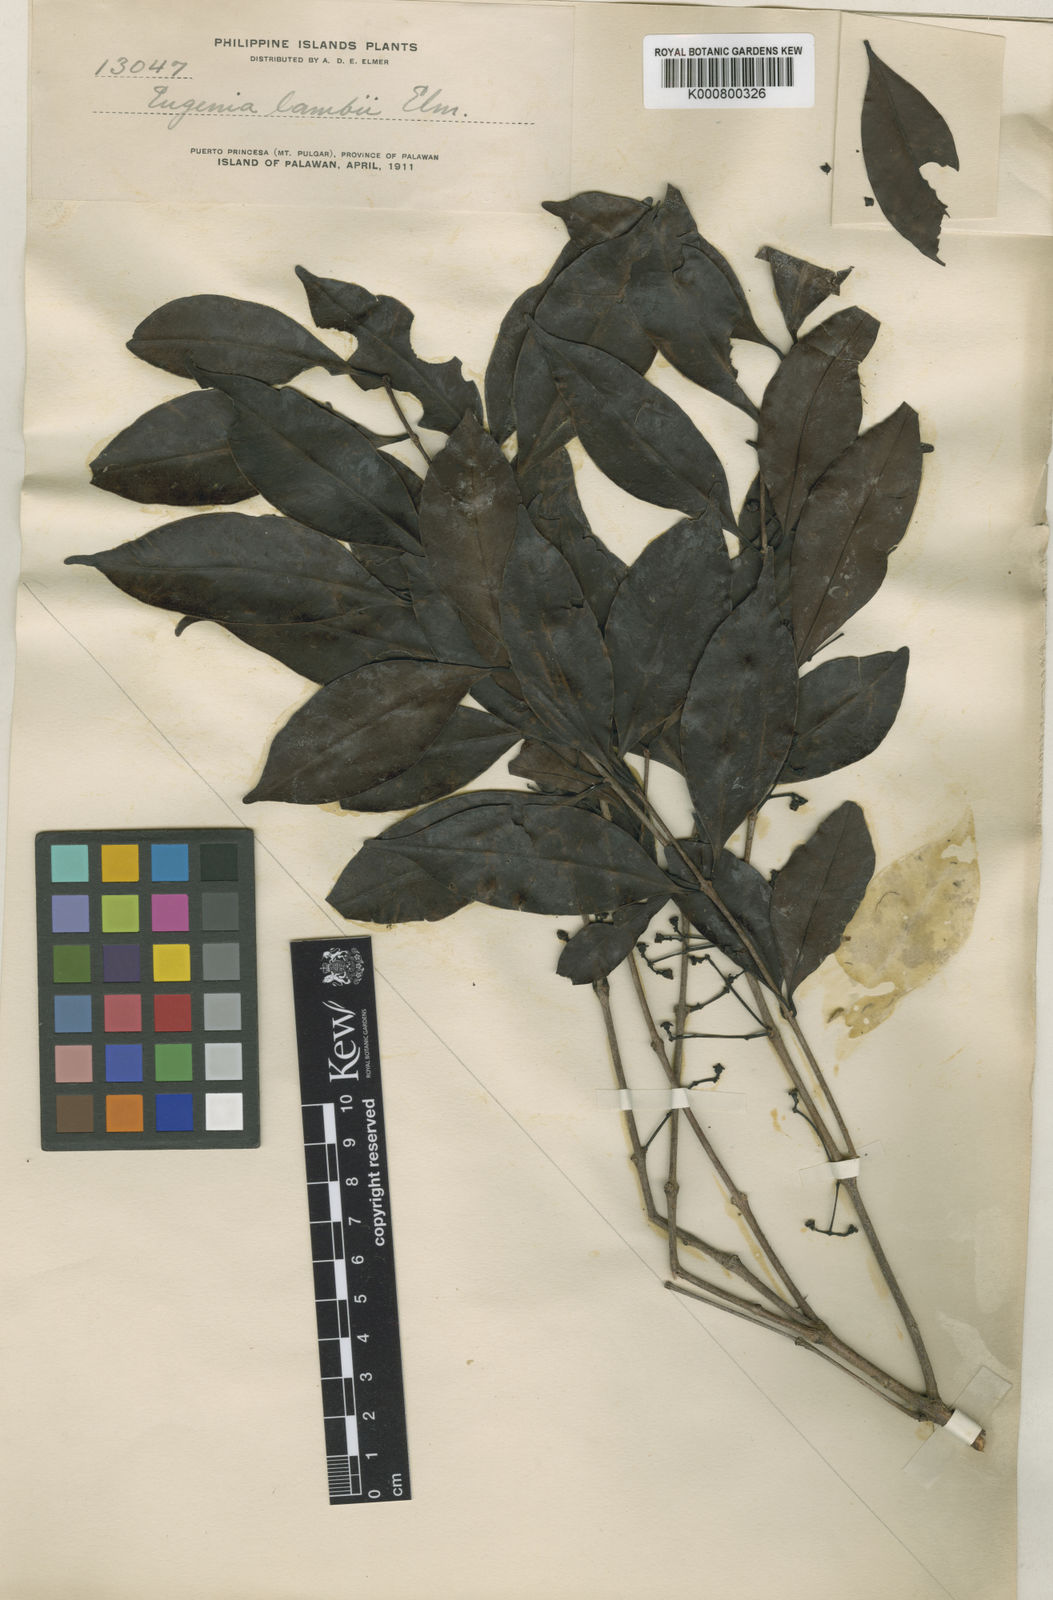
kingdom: Plantae
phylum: Tracheophyta
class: Magnoliopsida
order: Myrtales
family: Myrtaceae
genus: Syzygium
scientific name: Syzygium polyanthum
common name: Indonesian bayleaf
